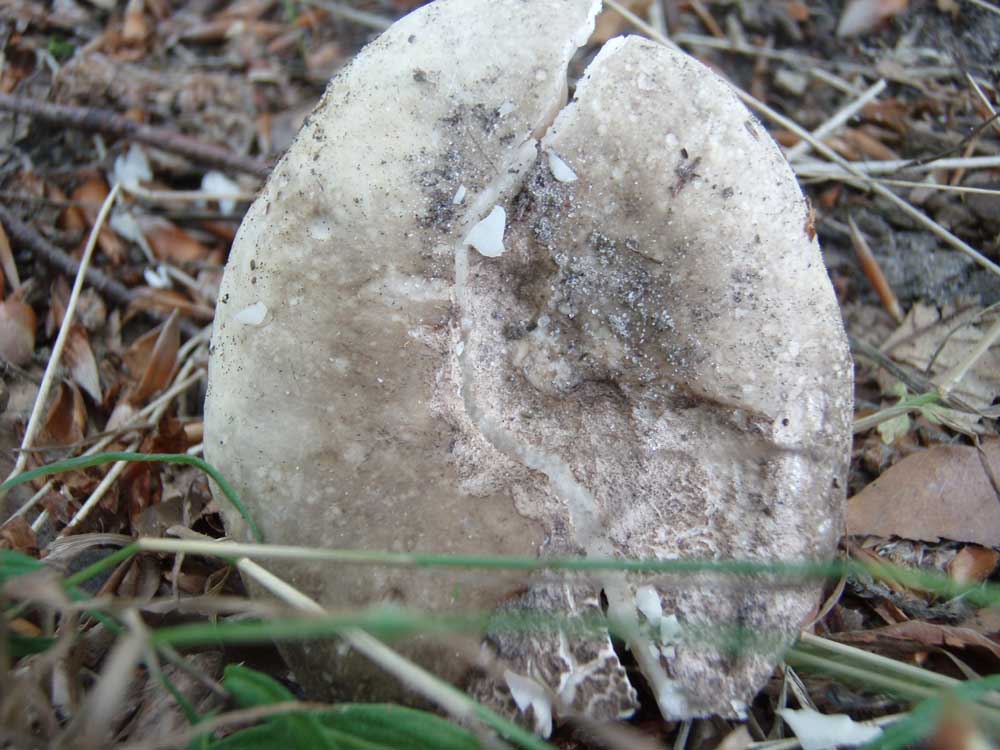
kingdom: Fungi
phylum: Basidiomycota
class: Agaricomycetes
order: Russulales
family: Russulaceae
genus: Lactarius
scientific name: Lactarius ruginosus
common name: gråbrun mælkehat
